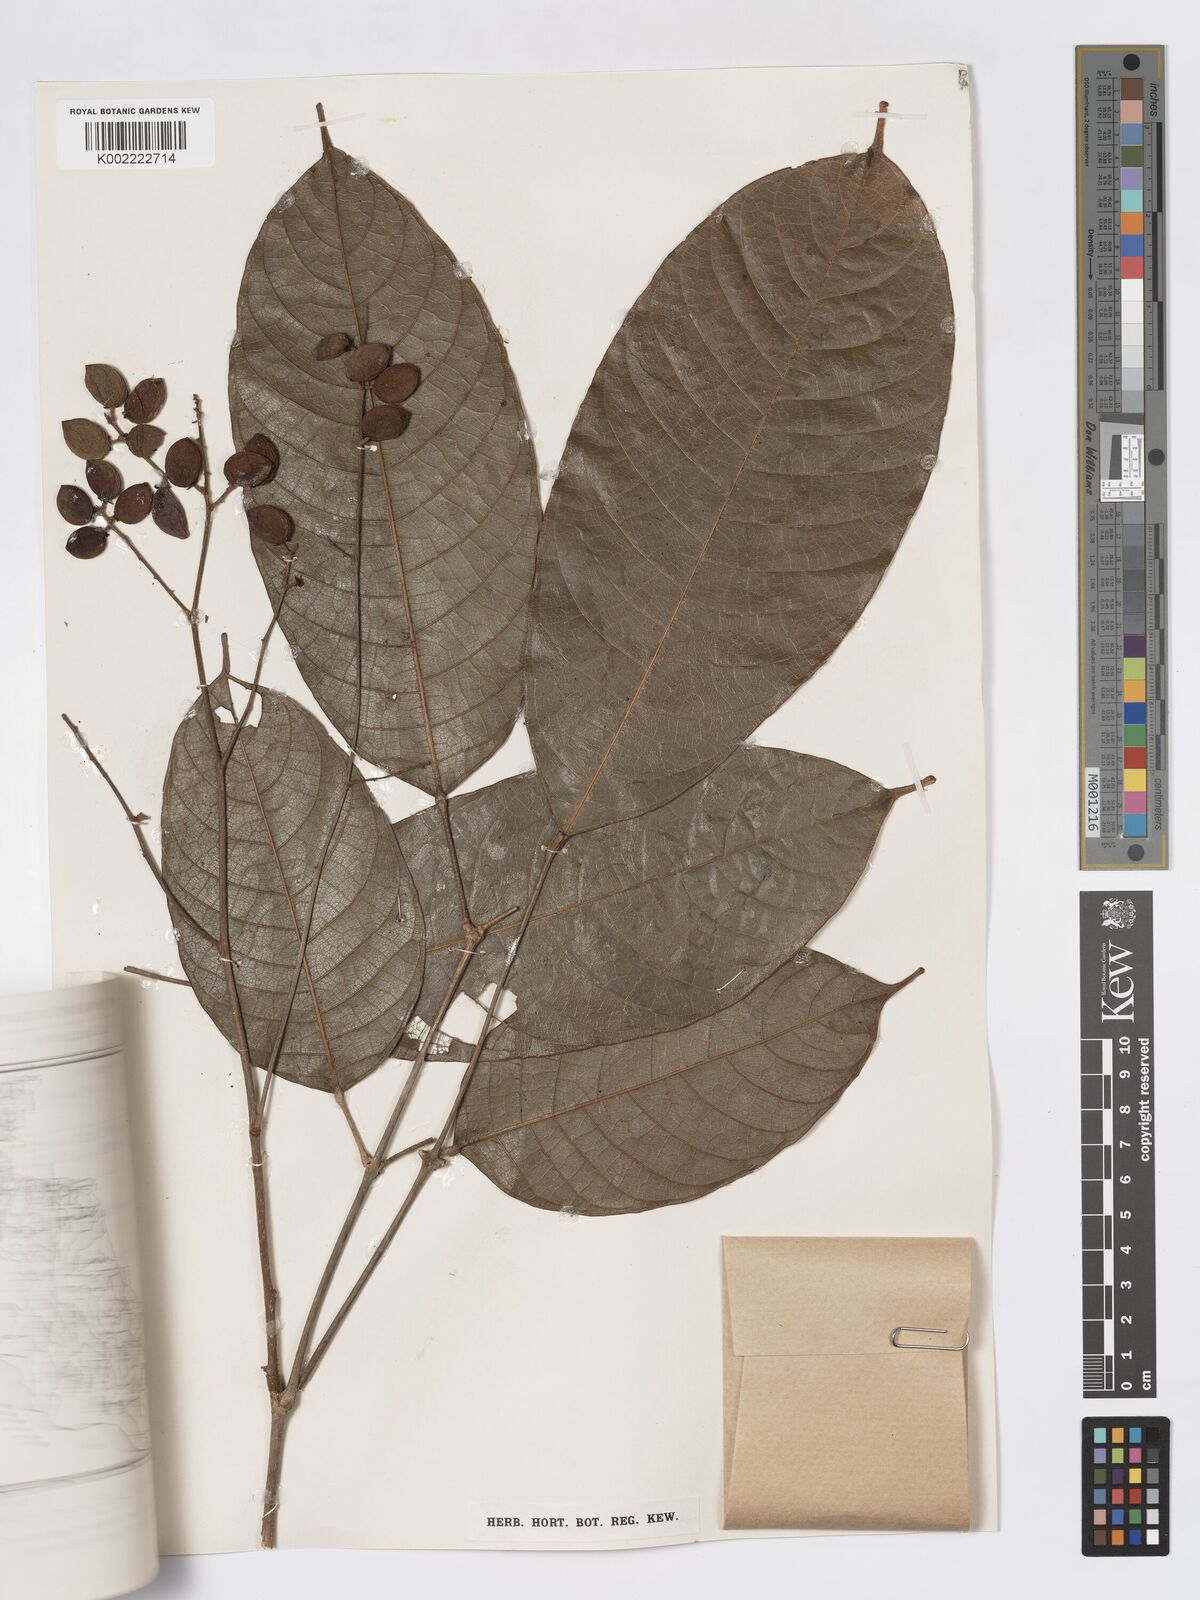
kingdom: Plantae
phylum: Tracheophyta
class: Magnoliopsida
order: Sapindales
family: Burseraceae
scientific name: Burseraceae
